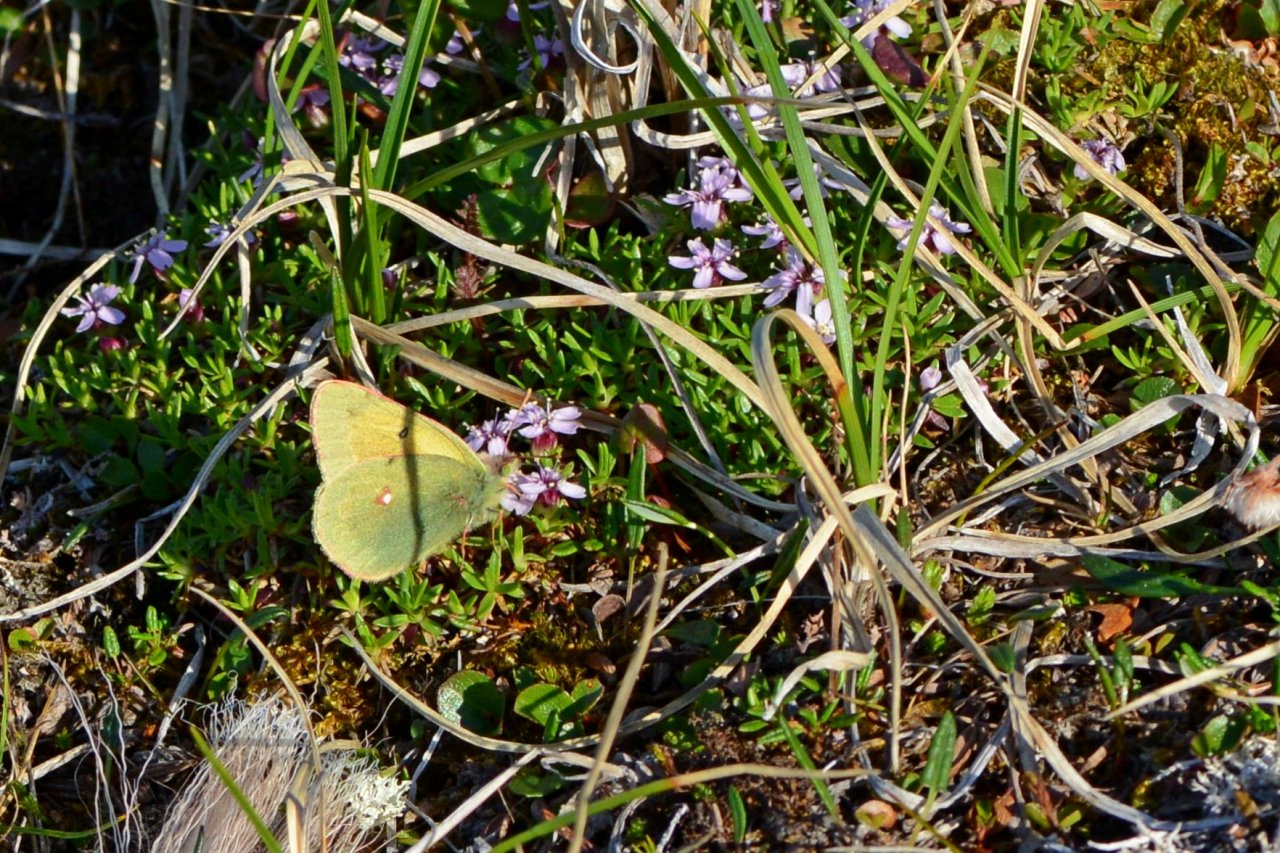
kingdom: Animalia
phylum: Arthropoda
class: Insecta
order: Lepidoptera
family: Pieridae
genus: Colias
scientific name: Colias hecla
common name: Hecla Sulphur
